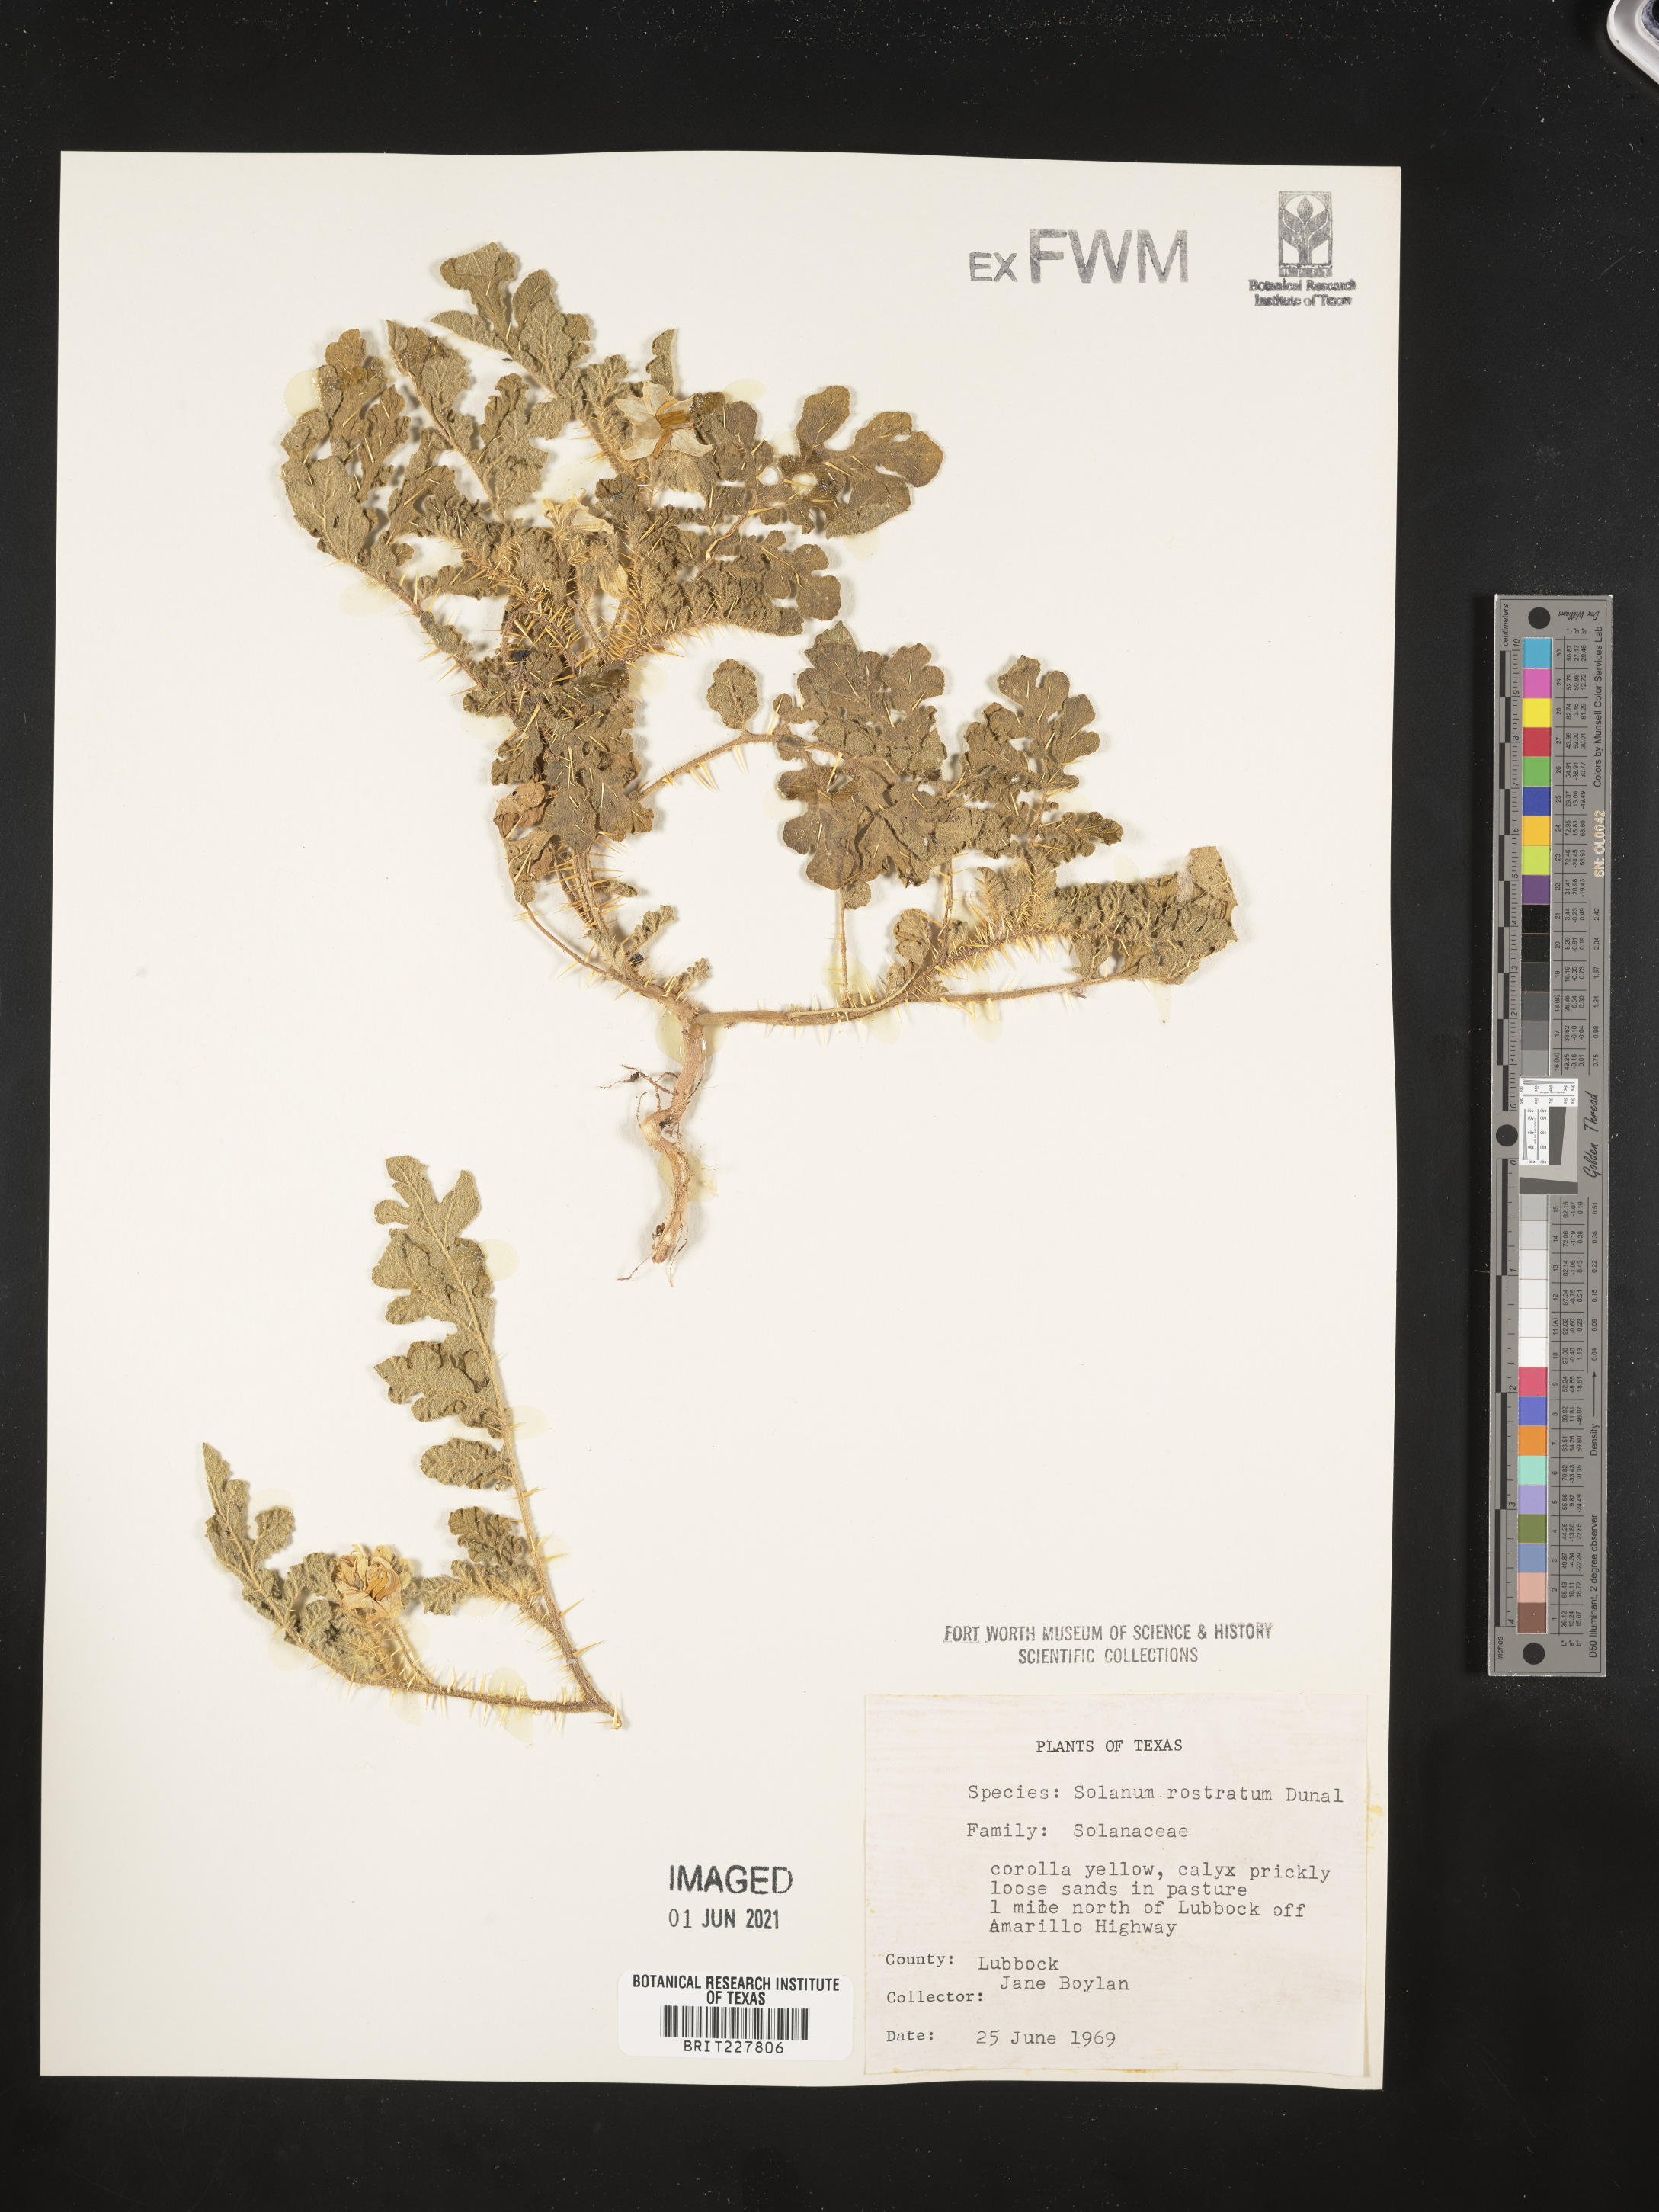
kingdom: Plantae
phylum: Tracheophyta
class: Magnoliopsida
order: Solanales
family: Solanaceae
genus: Solanum
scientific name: Solanum angustifolium
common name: Buffalobur nightshade
